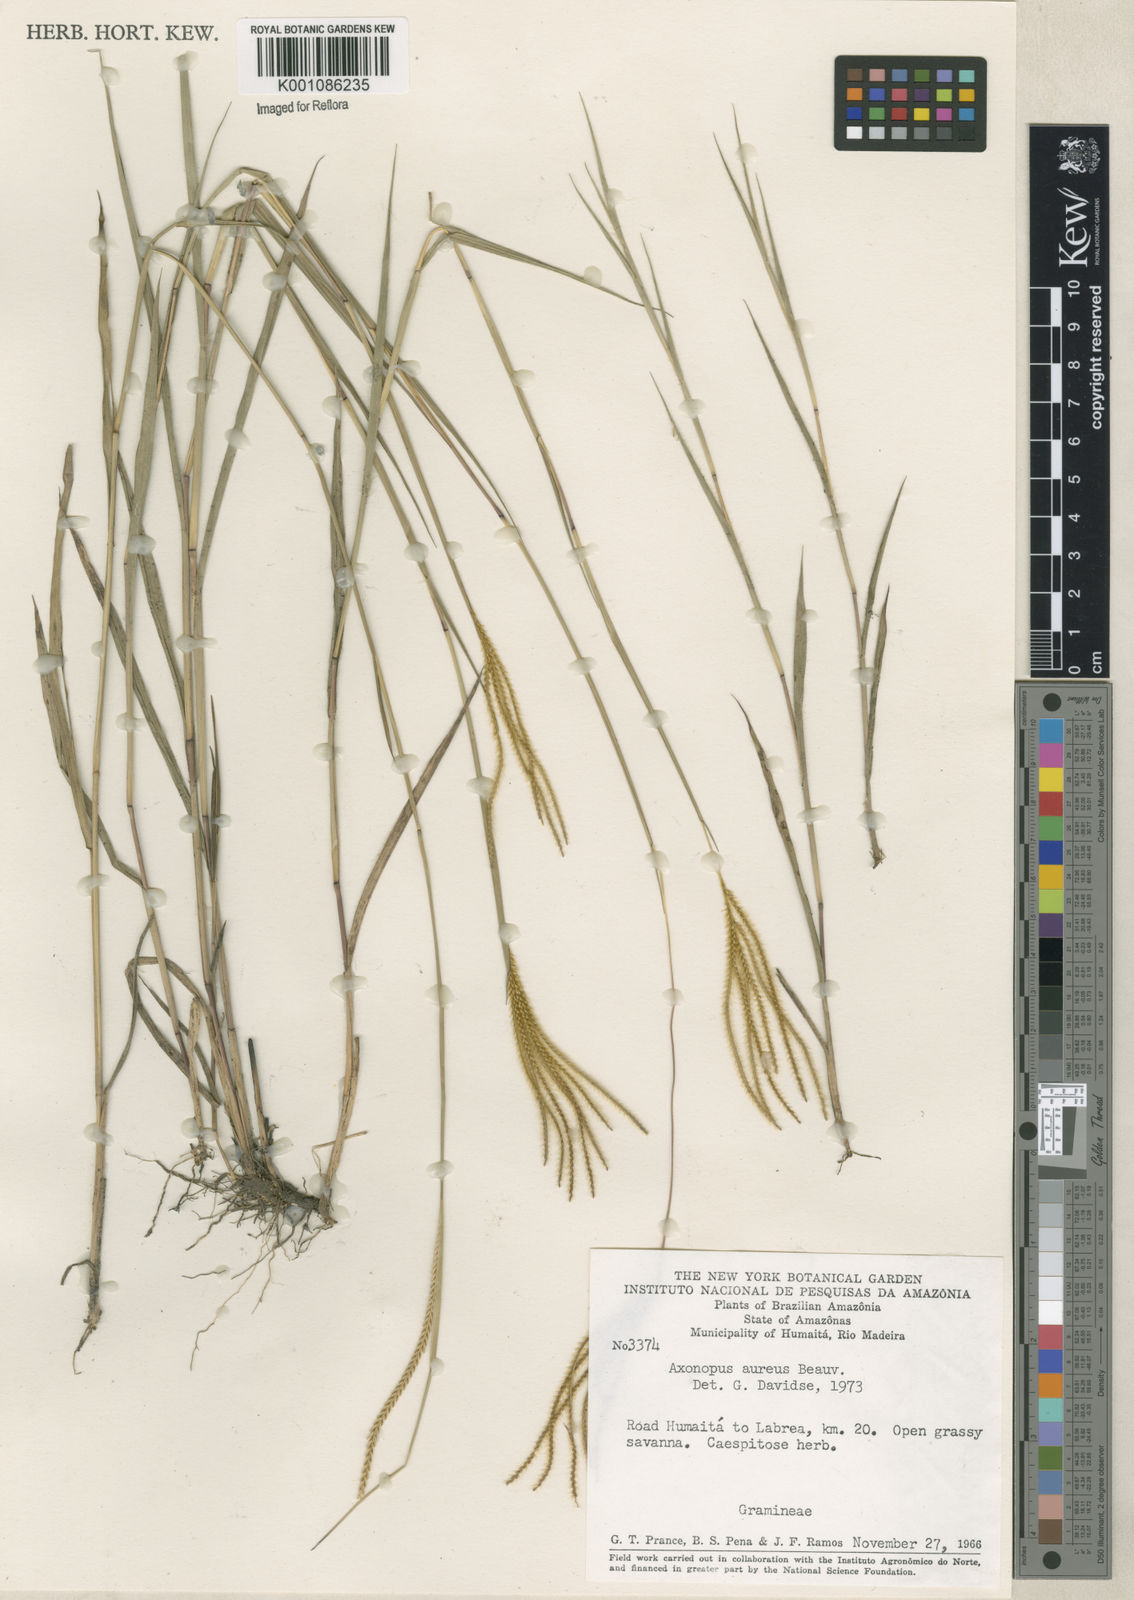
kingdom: Plantae
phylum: Tracheophyta
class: Liliopsida
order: Poales
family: Poaceae
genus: Axonopus
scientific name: Axonopus aureus
